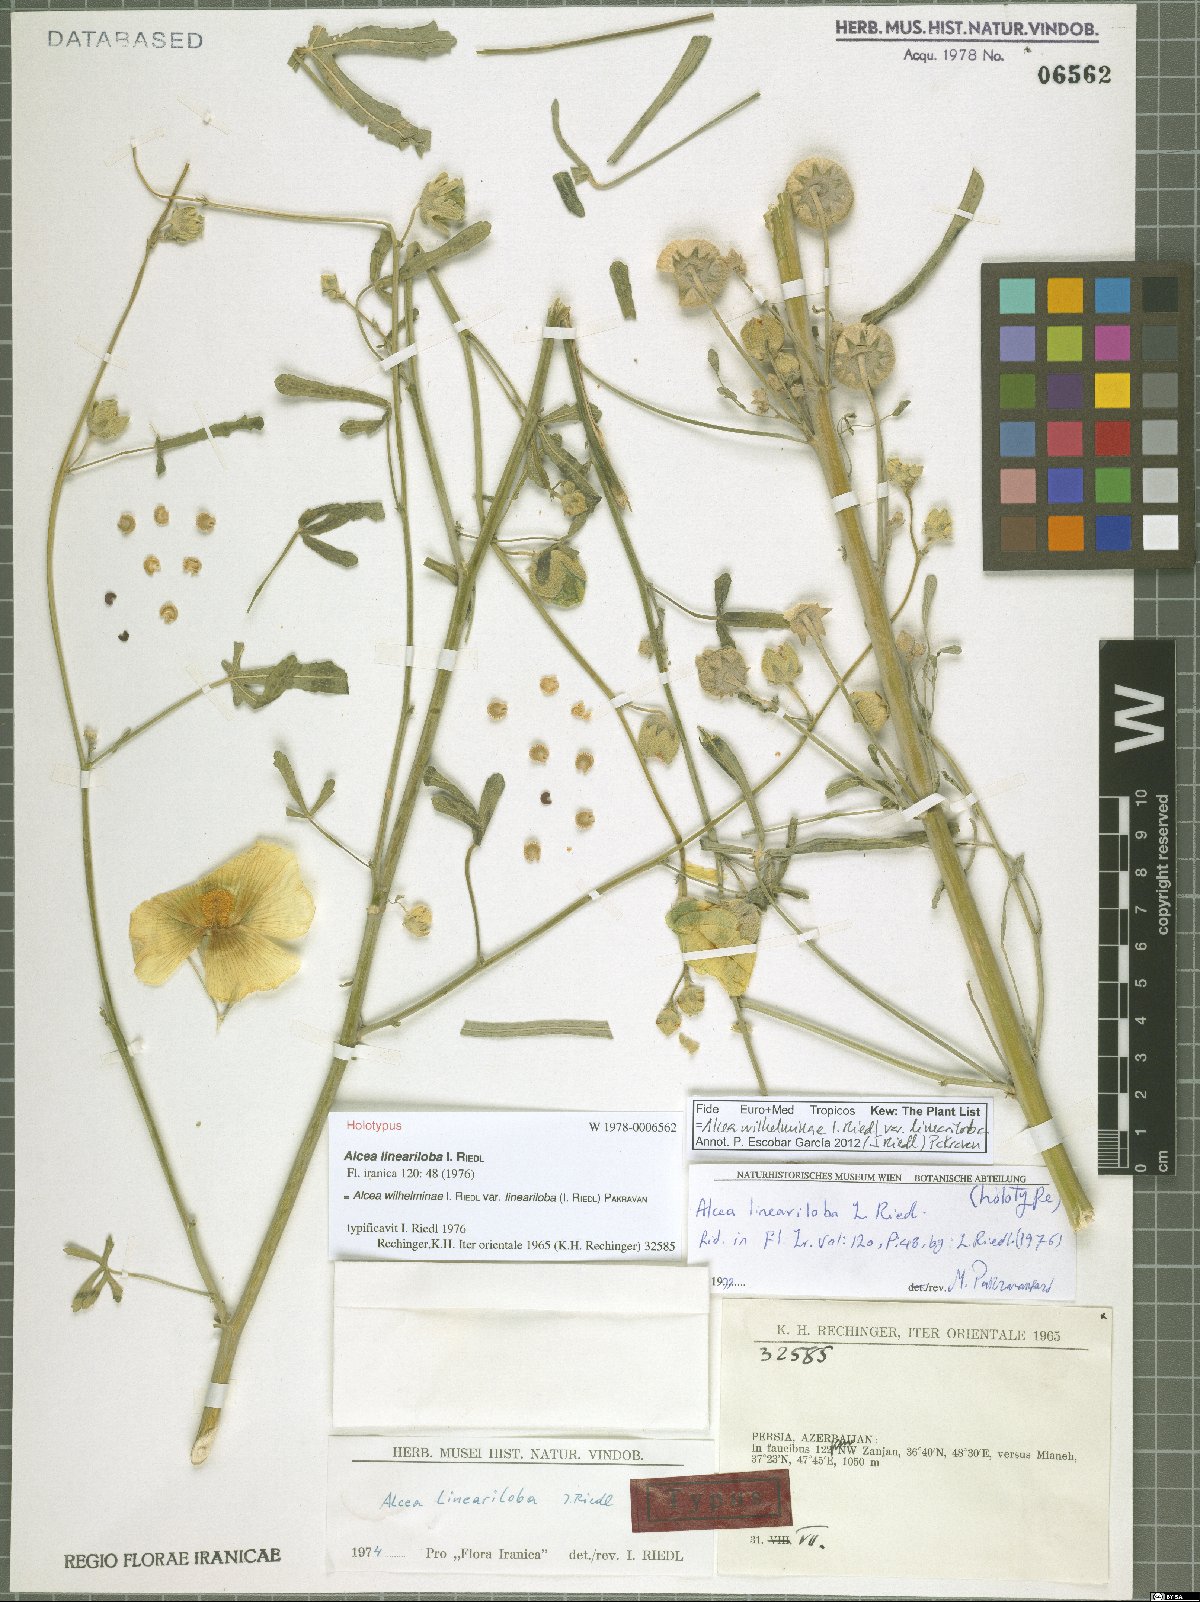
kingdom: Plantae
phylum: Tracheophyta
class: Magnoliopsida
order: Malvales
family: Malvaceae
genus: Alcea
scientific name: Alcea wilhelminae
